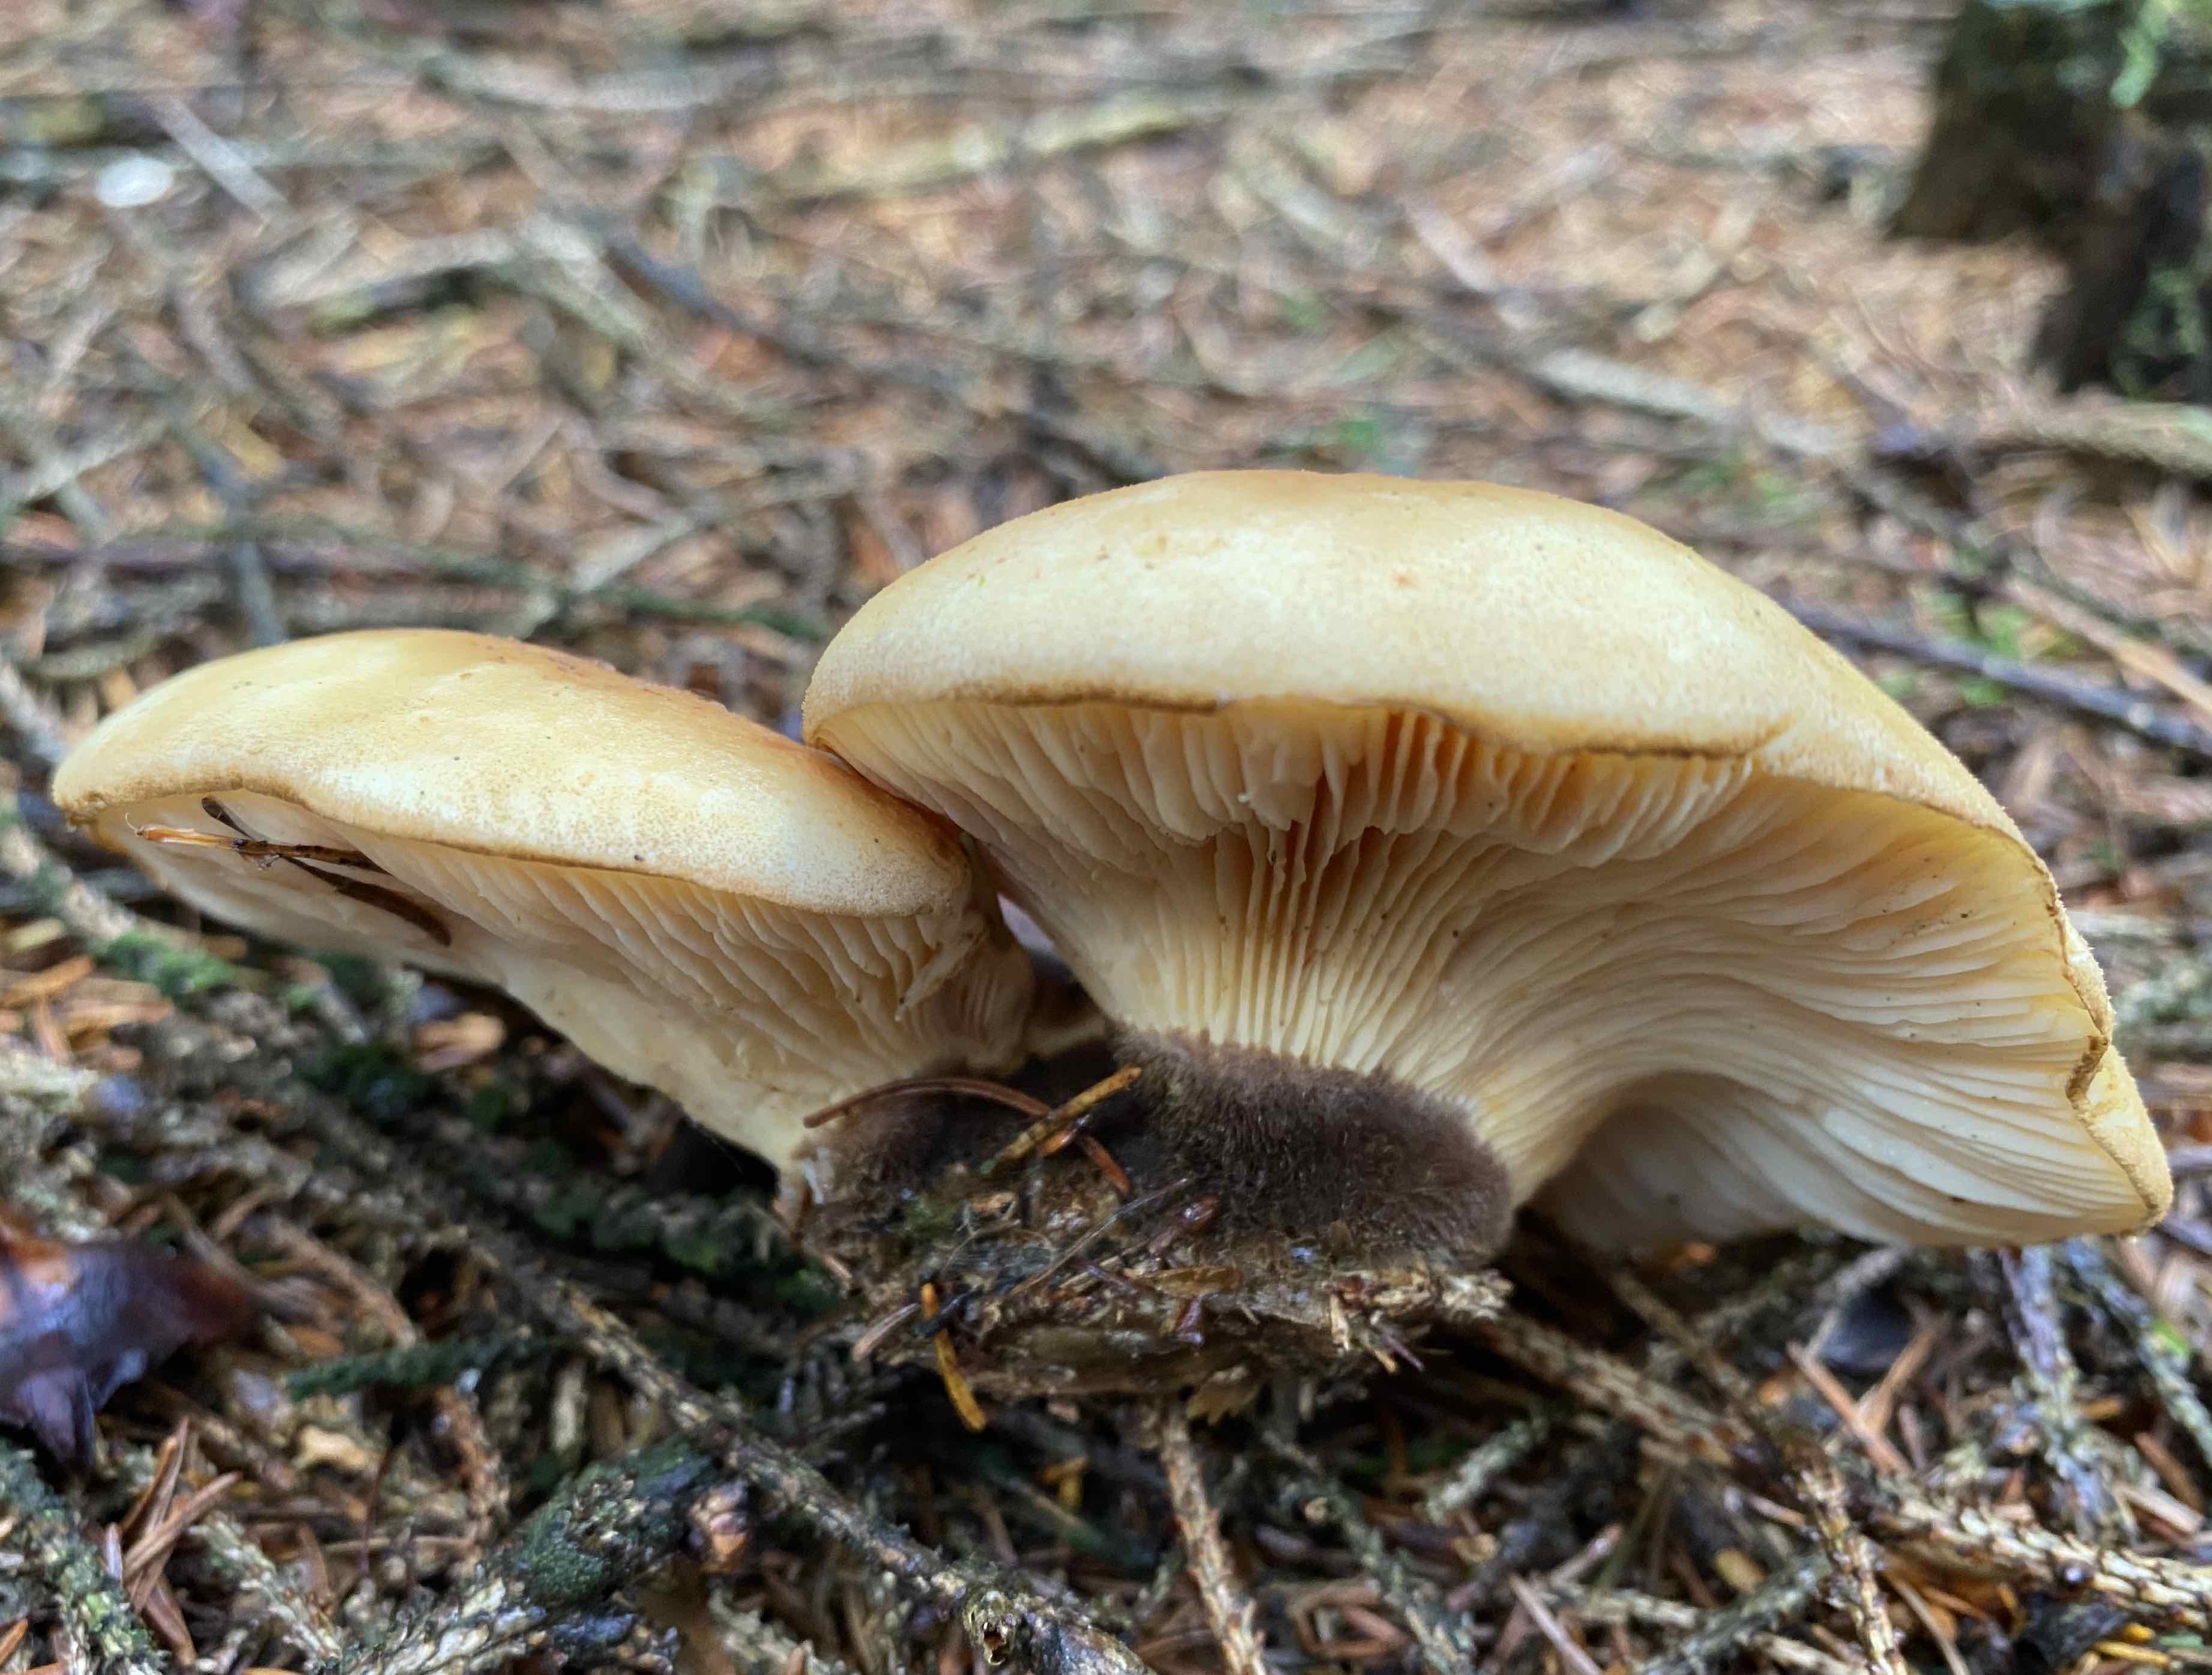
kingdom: Fungi
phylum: Basidiomycota
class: Agaricomycetes
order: Boletales
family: Tapinellaceae
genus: Tapinella
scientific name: Tapinella atrotomentosa
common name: sortfiltet viftesvamp
